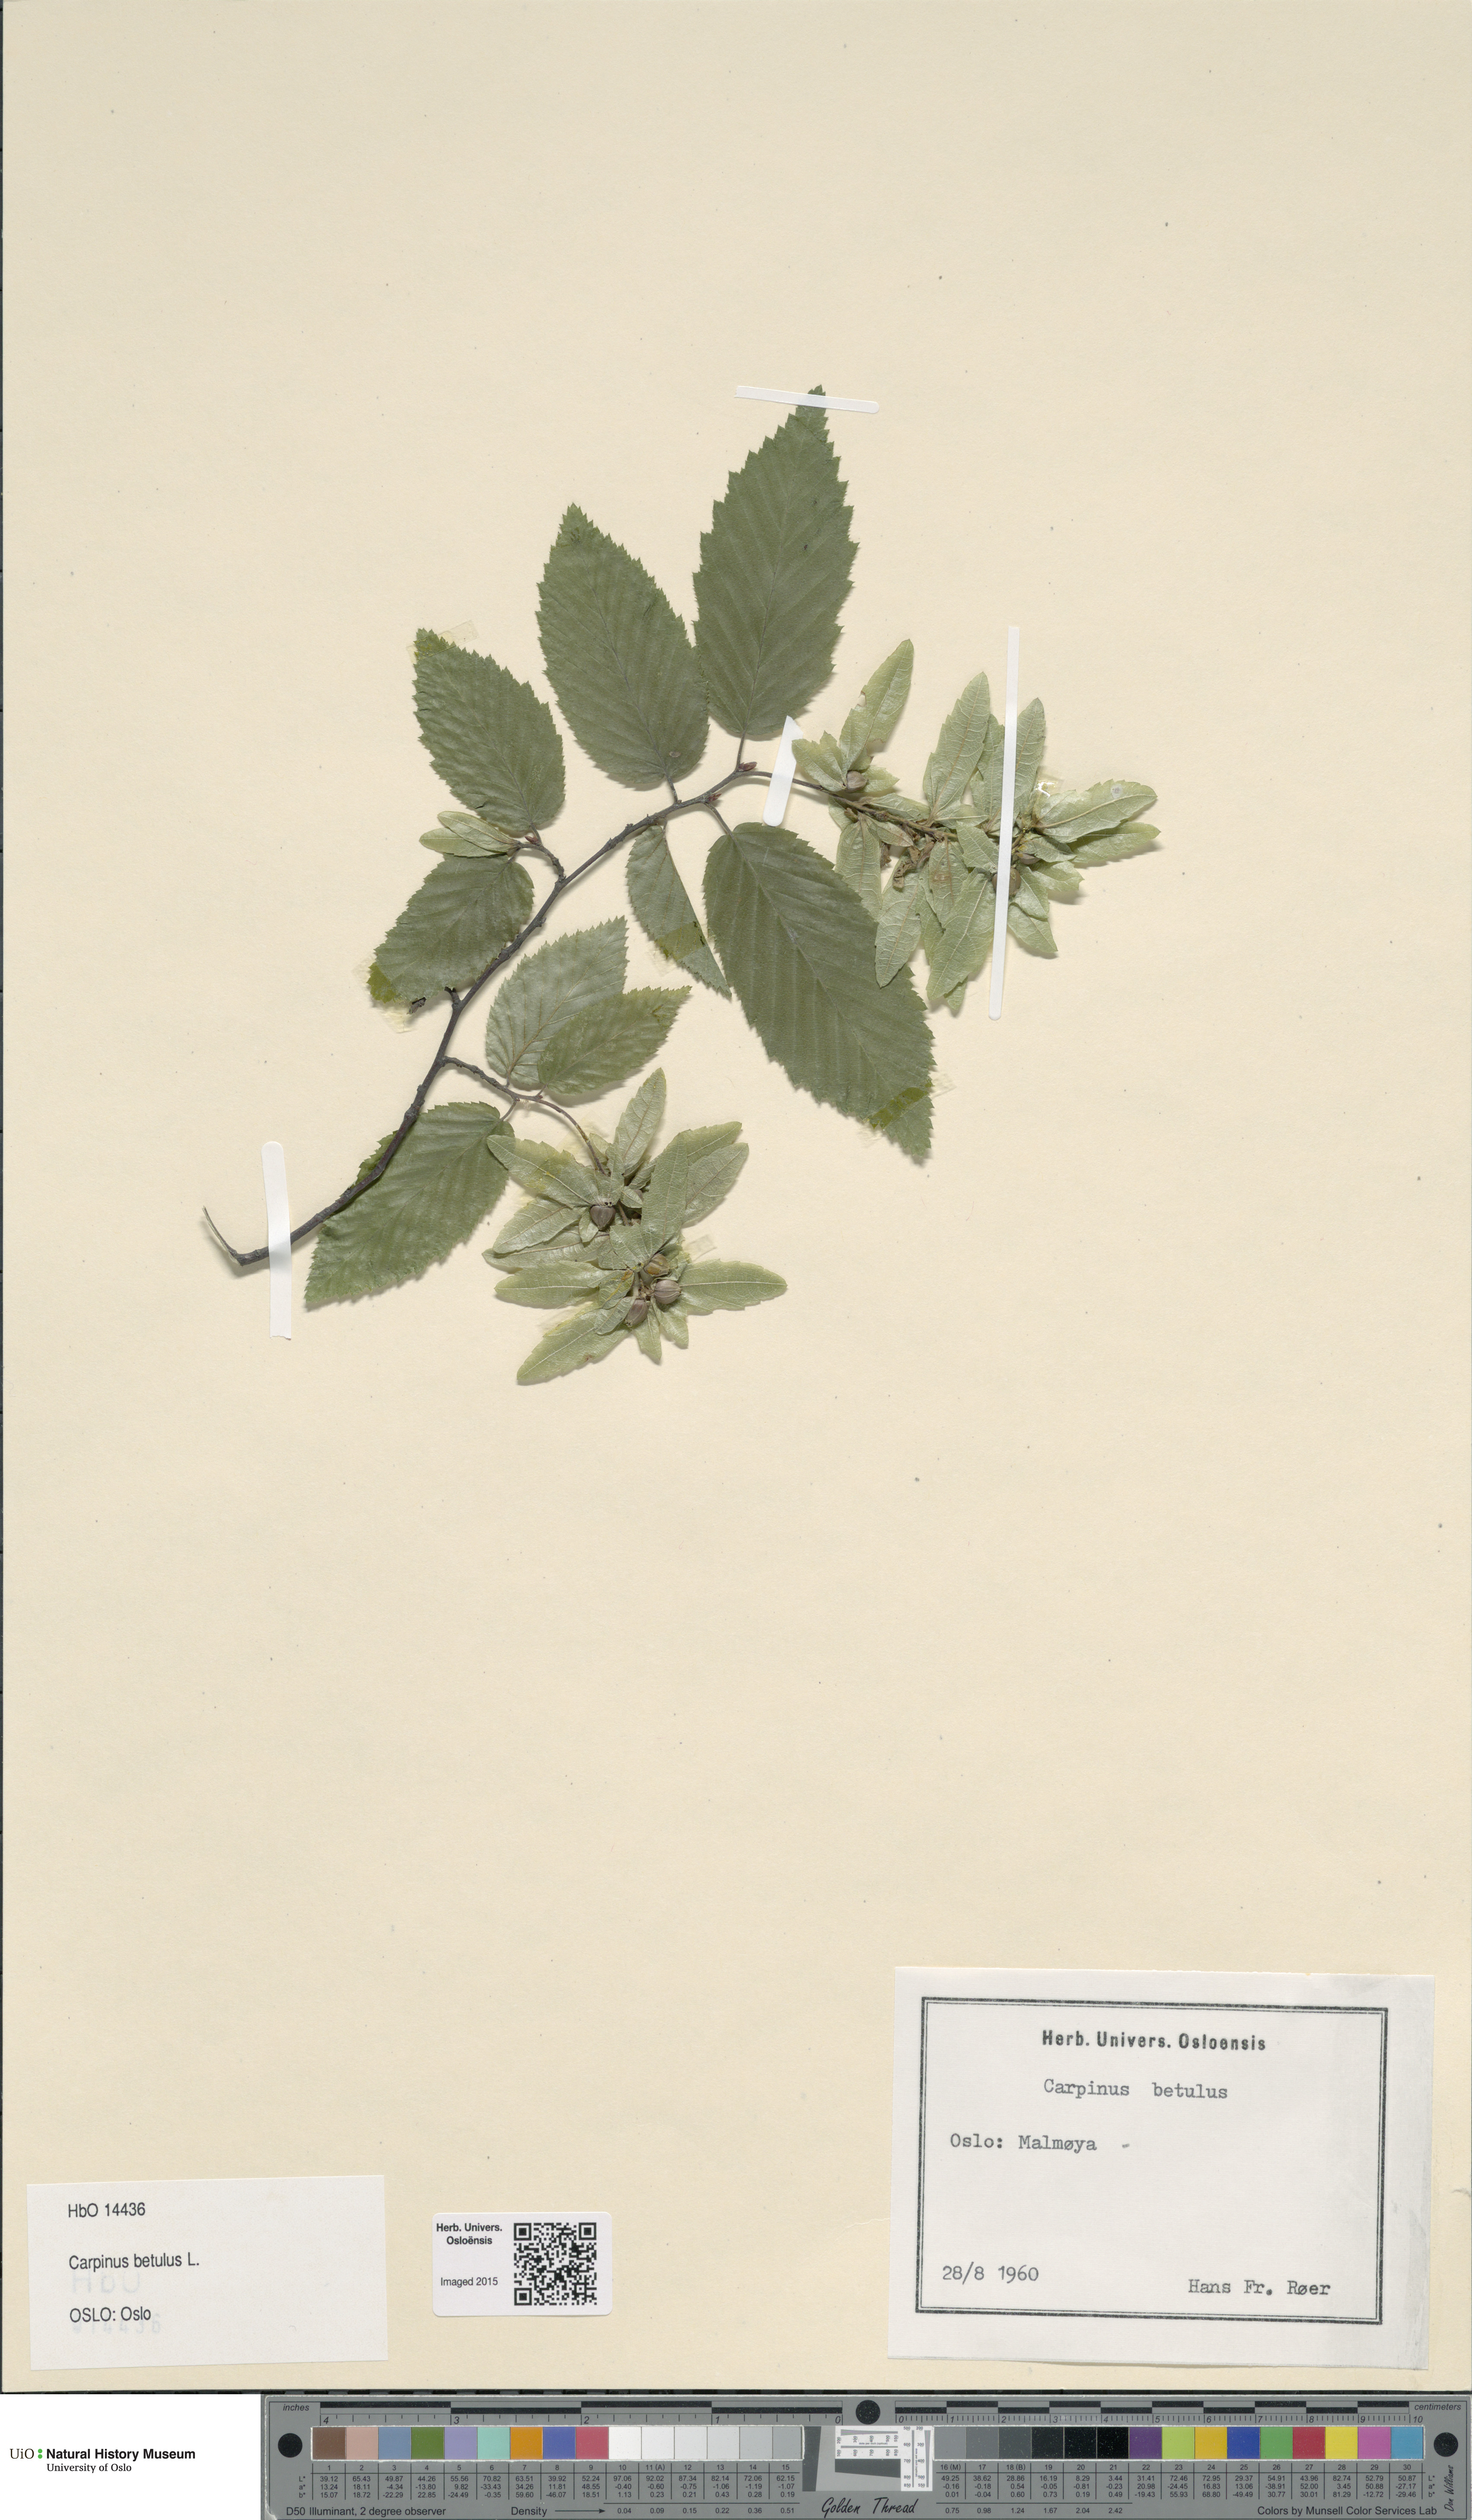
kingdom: Plantae
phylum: Tracheophyta
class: Magnoliopsida
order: Fagales
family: Betulaceae
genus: Carpinus
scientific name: Carpinus betulus
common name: Hornbeam
